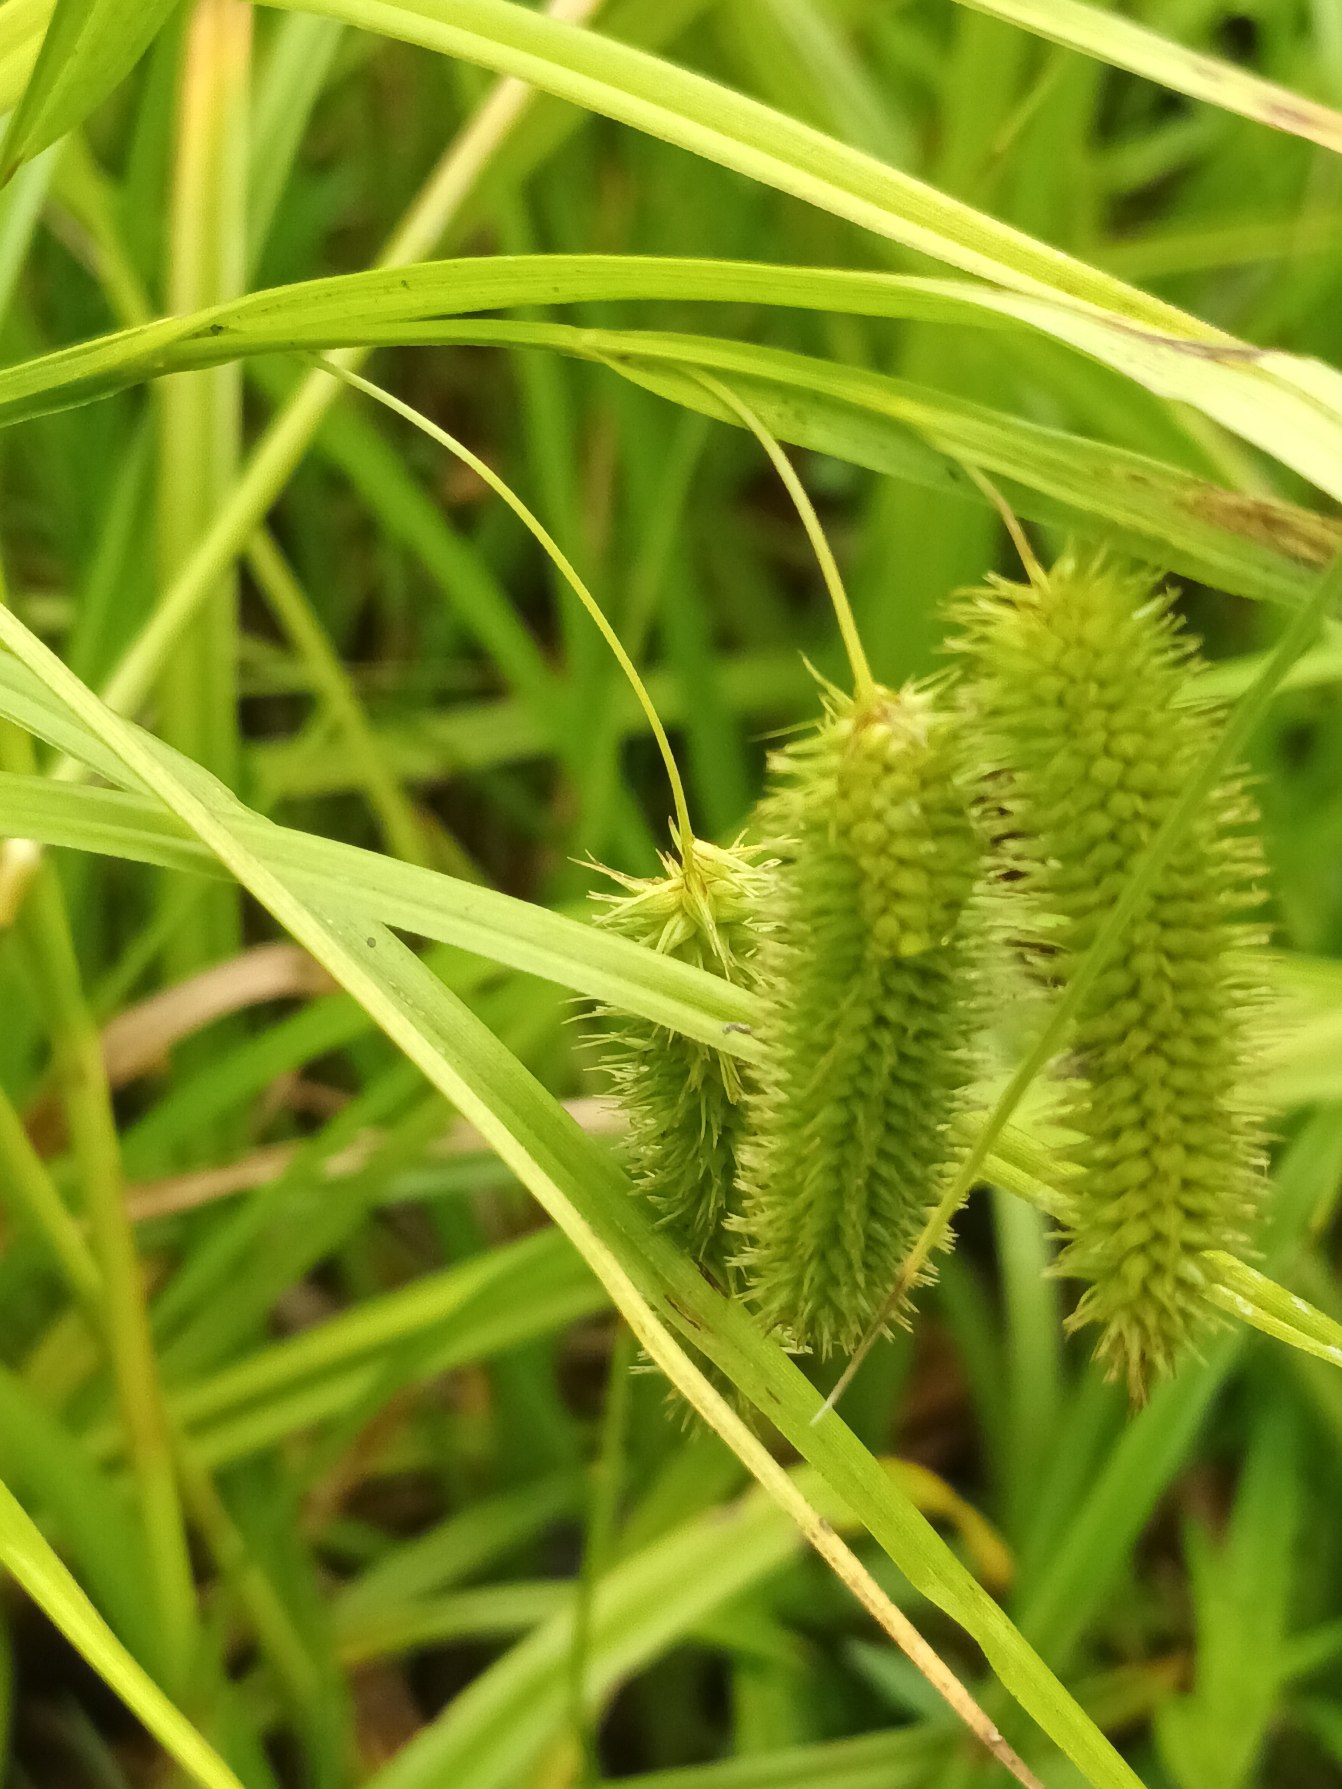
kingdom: Plantae
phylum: Tracheophyta
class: Liliopsida
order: Poales
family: Cyperaceae
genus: Carex
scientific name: Carex pseudocyperus
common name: Knippe-star
